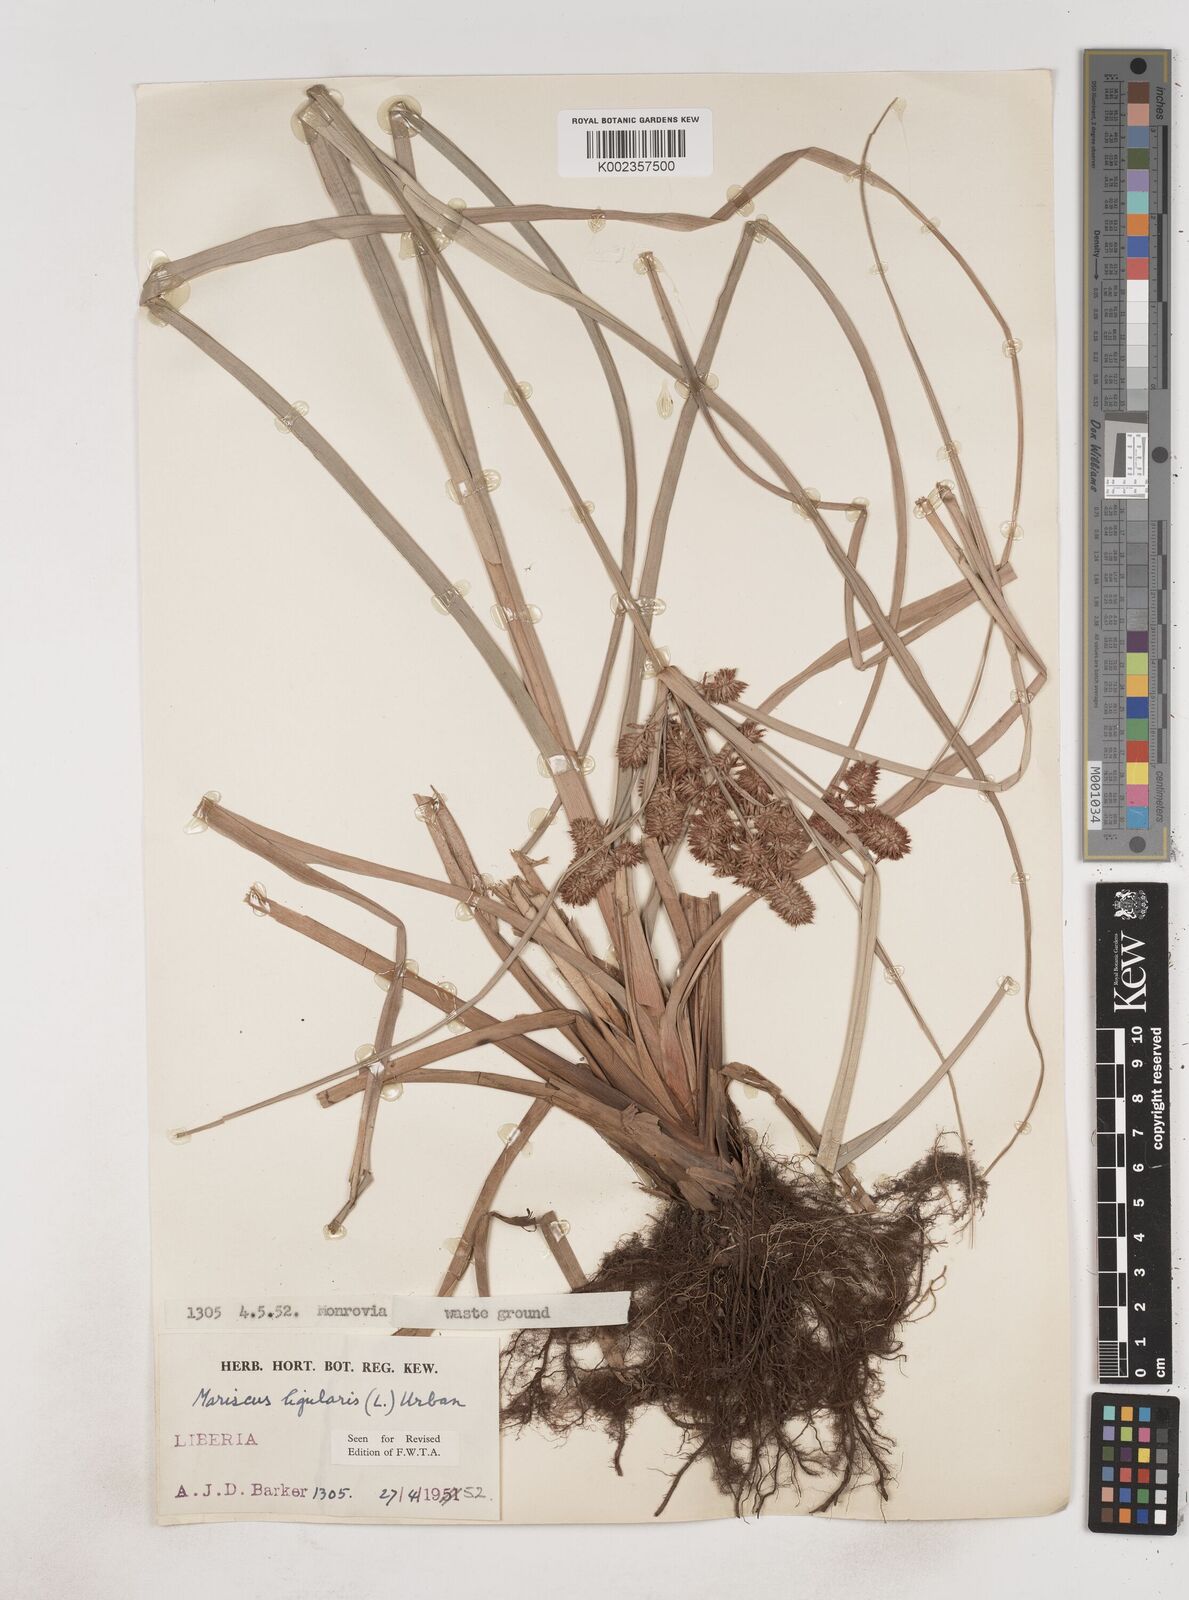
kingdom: Plantae
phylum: Tracheophyta
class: Liliopsida
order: Poales
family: Cyperaceae
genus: Cyperus
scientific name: Cyperus ligularis
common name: Swamp flat sedge
